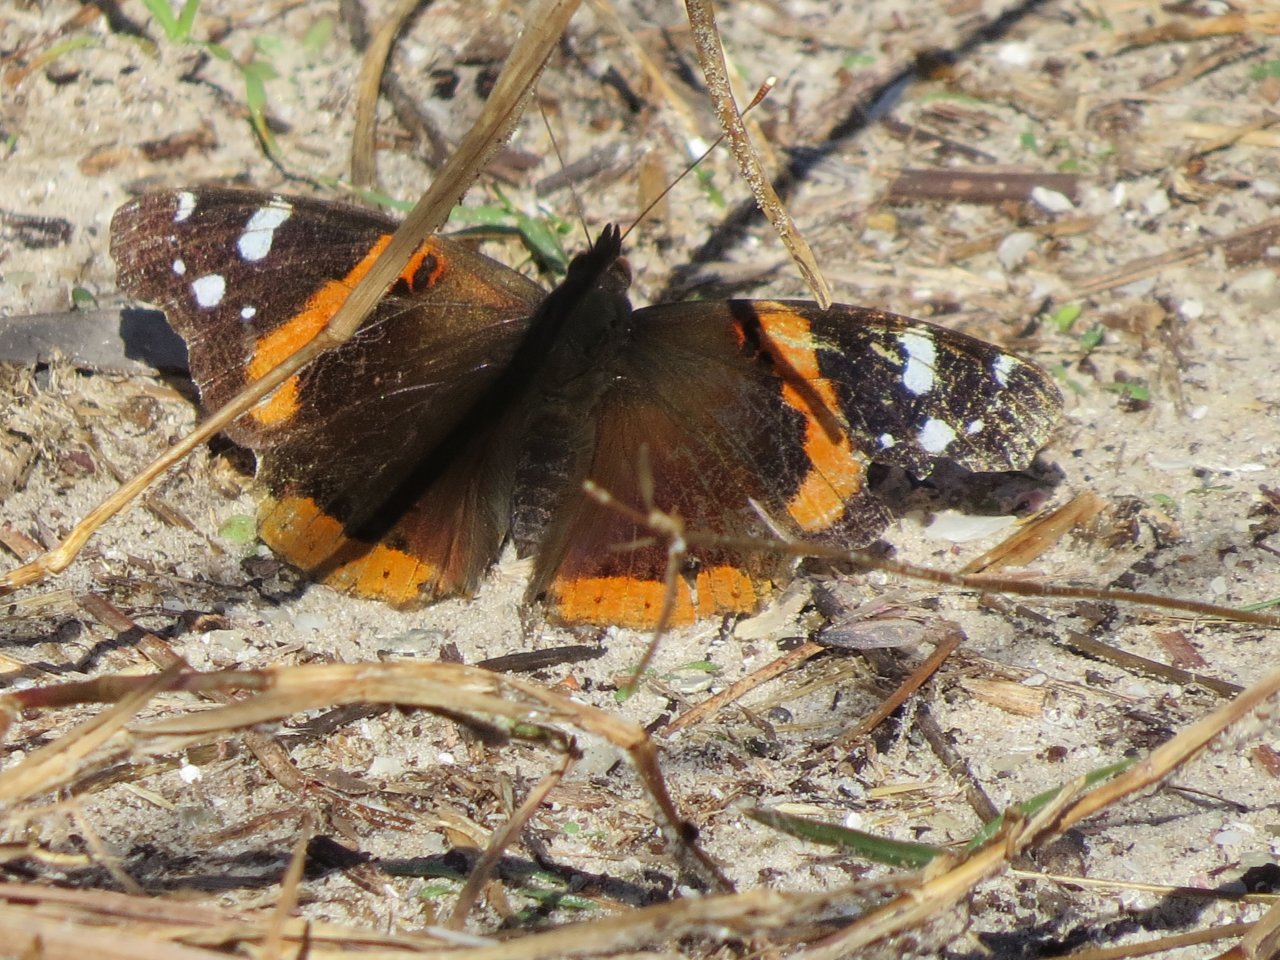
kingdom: Animalia
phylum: Arthropoda
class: Insecta
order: Lepidoptera
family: Nymphalidae
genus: Vanessa
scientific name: Vanessa atalanta
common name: Red Admiral
